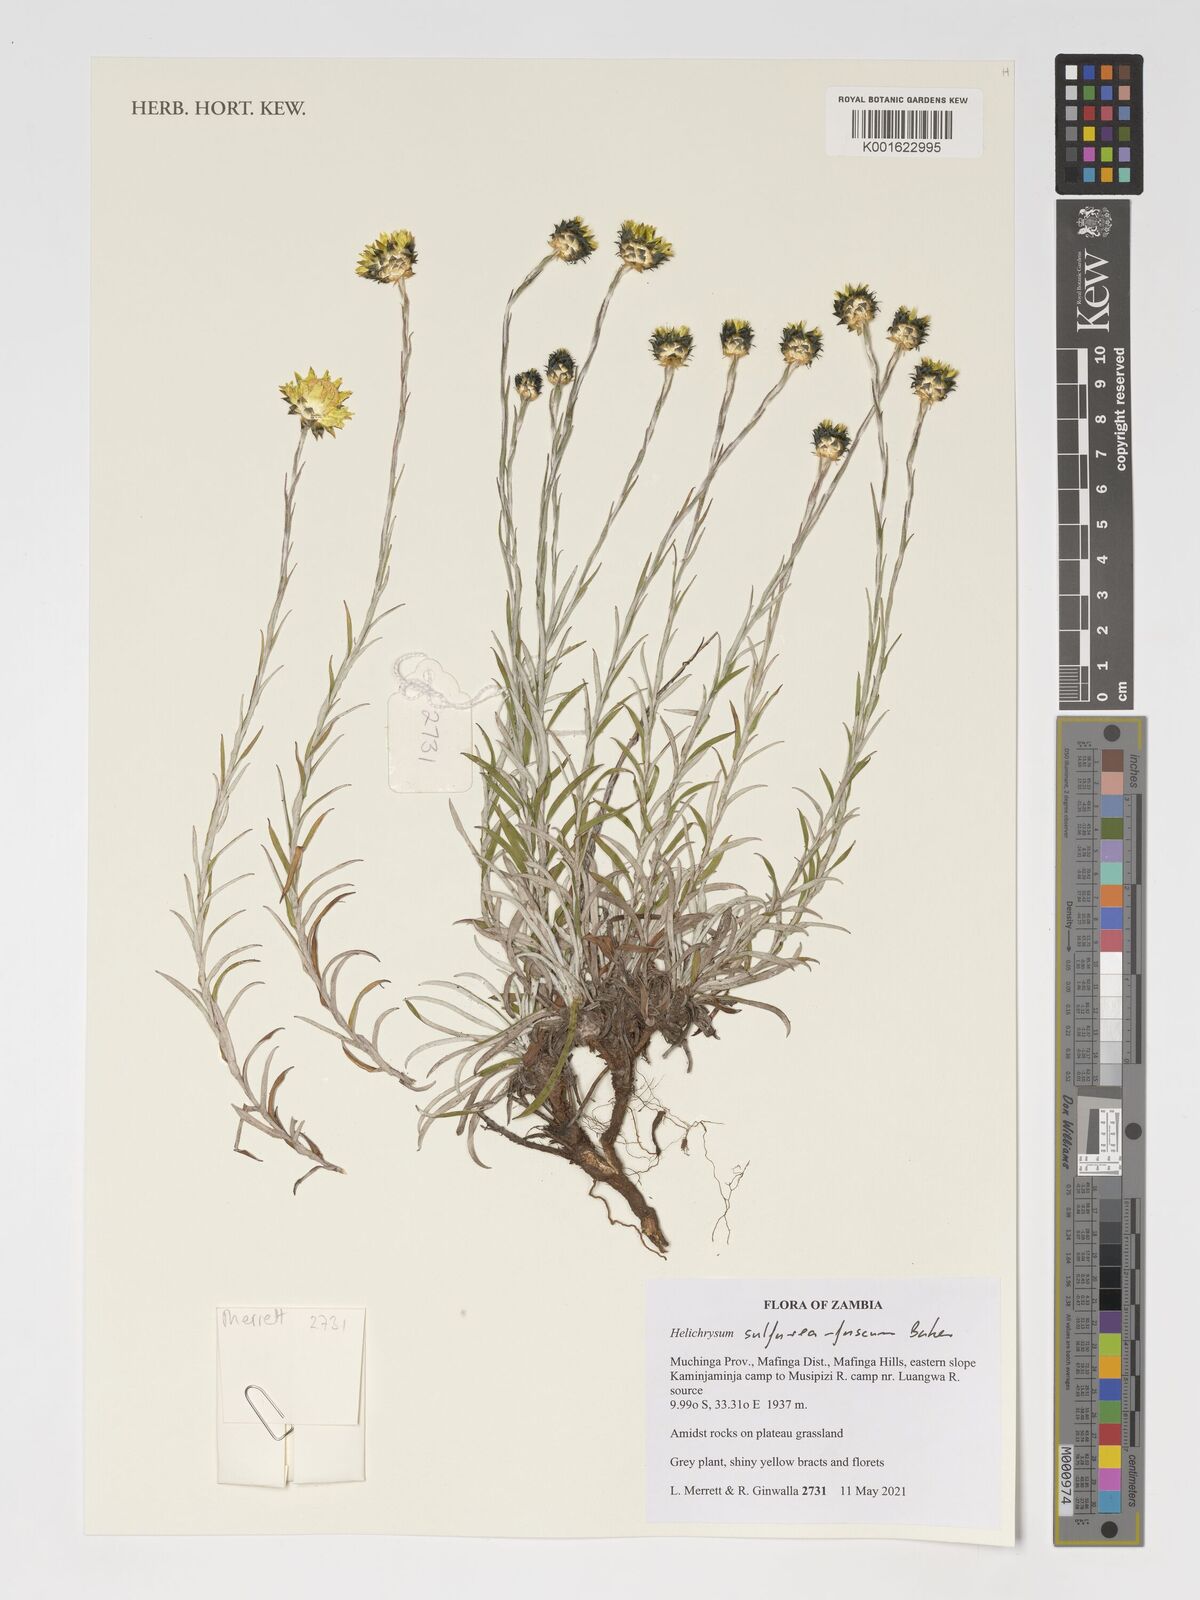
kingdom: Plantae
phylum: Tracheophyta
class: Magnoliopsida
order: Asterales
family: Asteraceae
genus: Helichrysum
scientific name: Helichrysum
